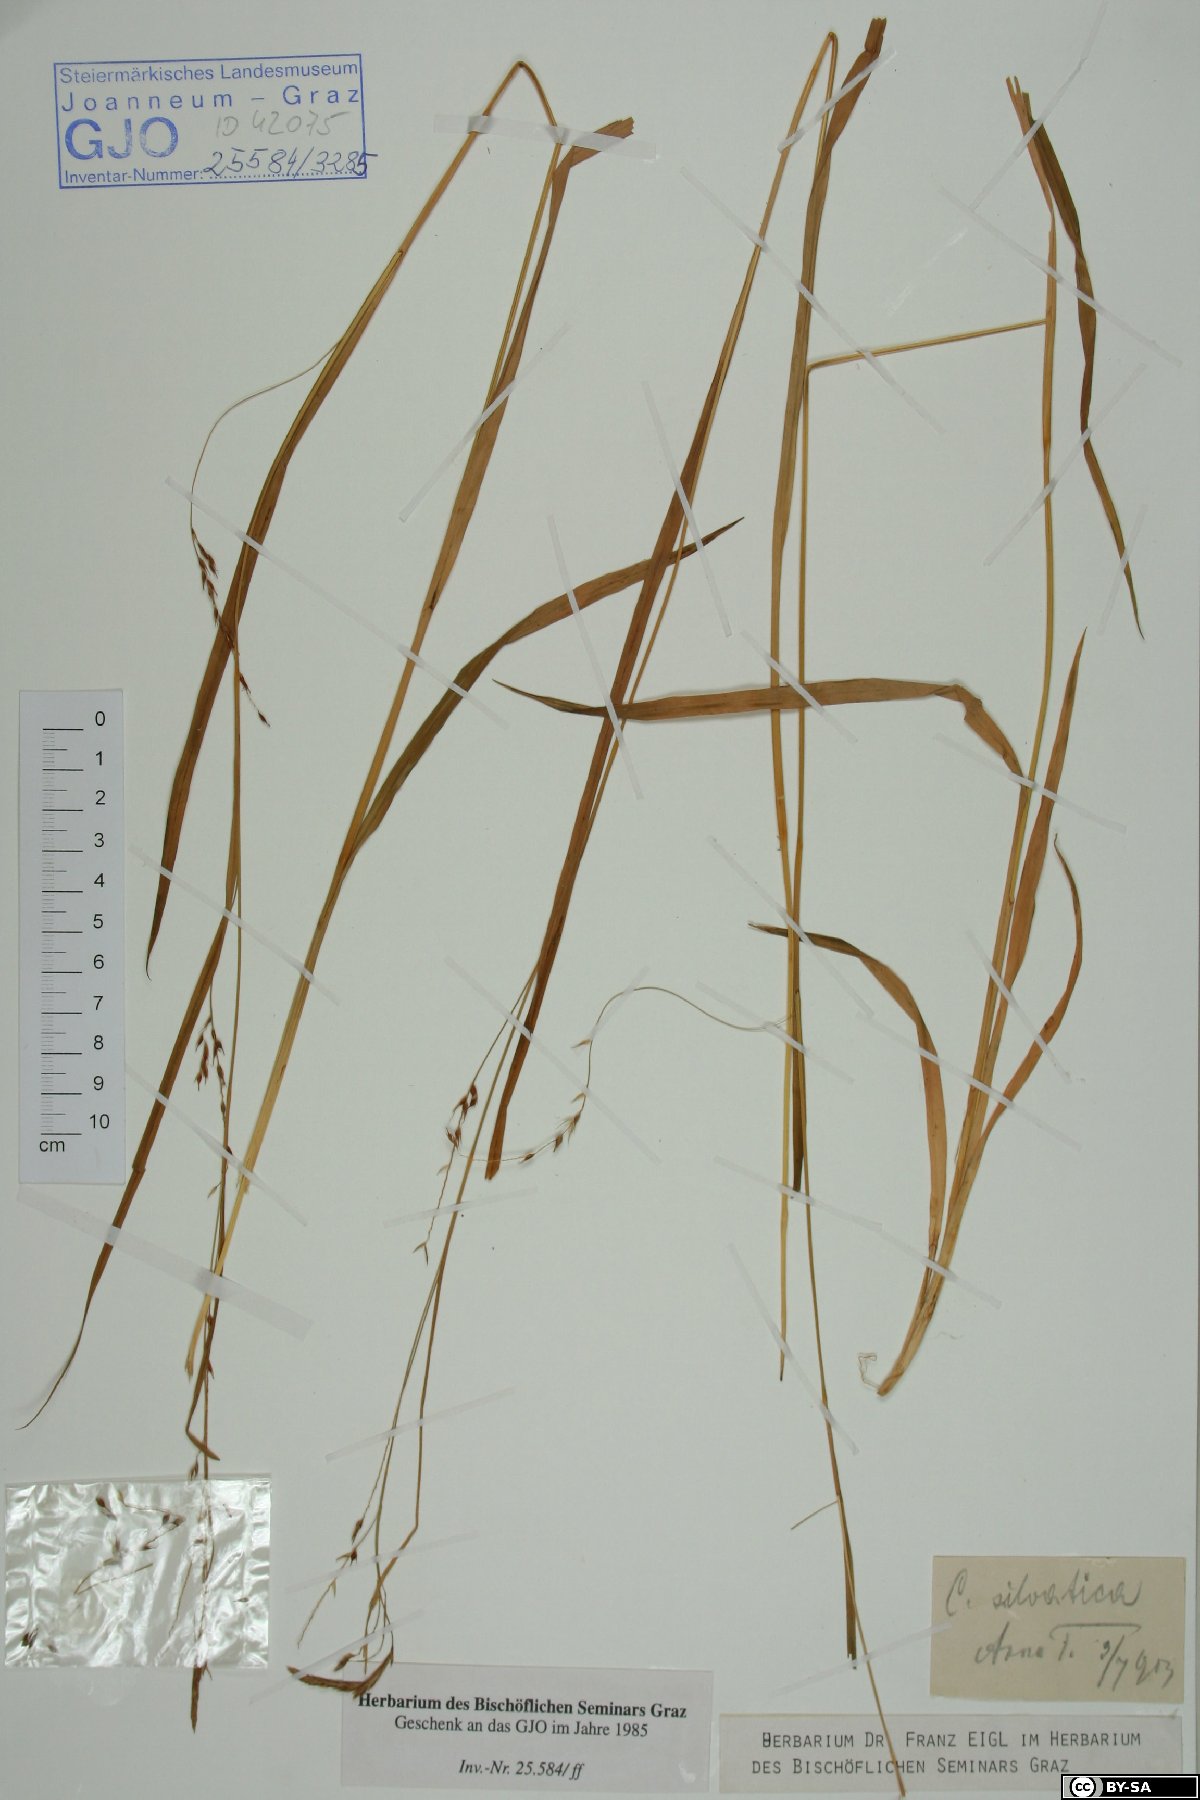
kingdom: Plantae
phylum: Tracheophyta
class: Liliopsida
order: Poales
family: Cyperaceae
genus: Carex
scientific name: Carex sylvatica
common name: Wood-sedge
